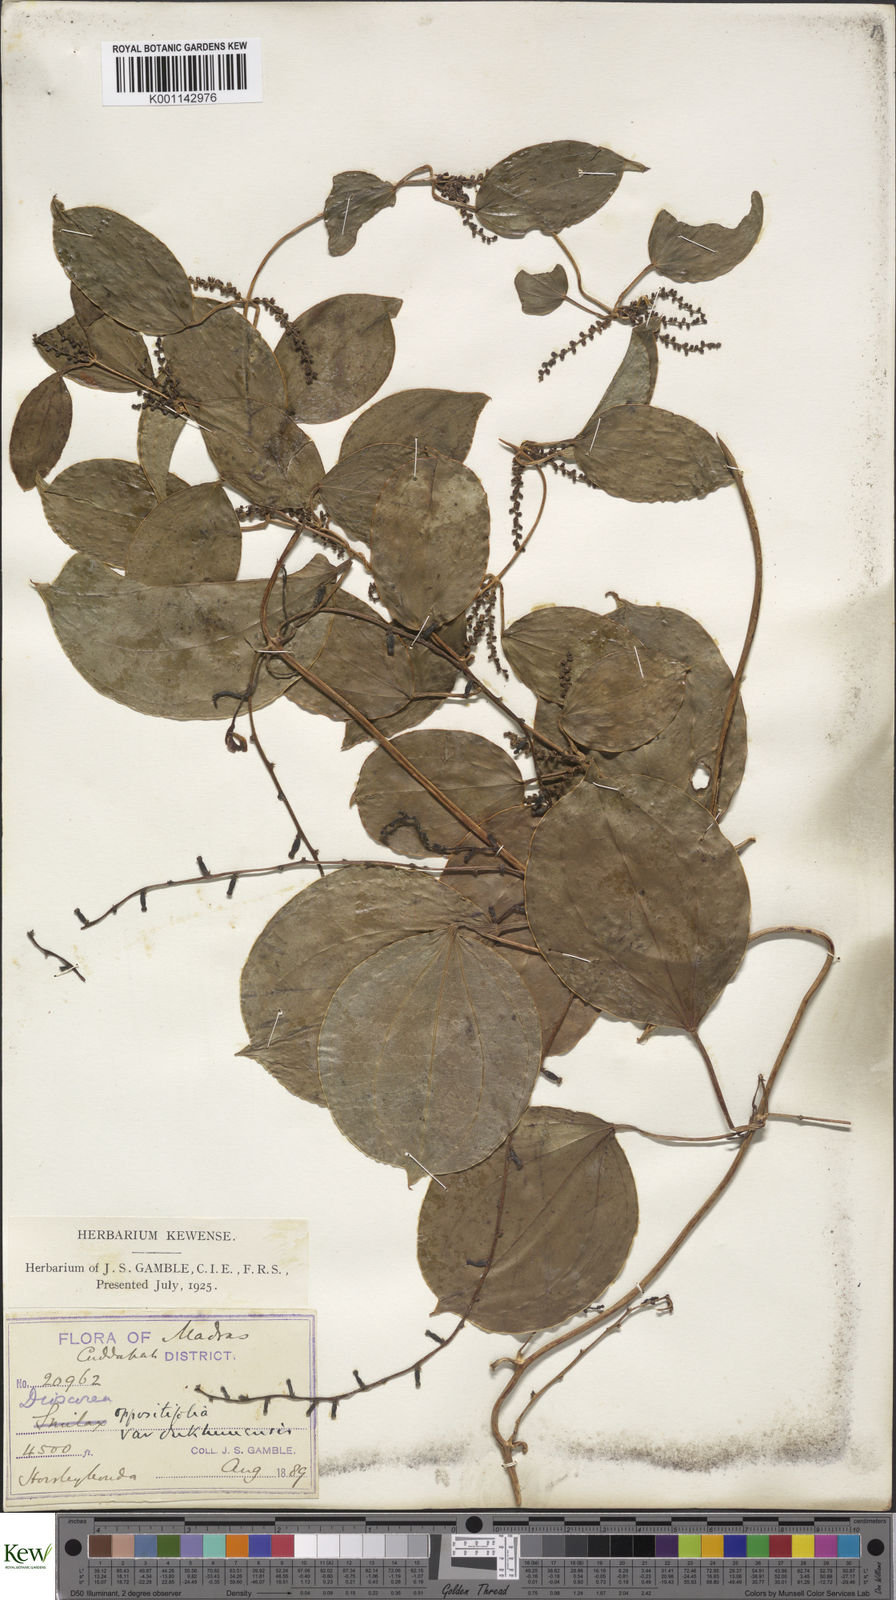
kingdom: Plantae
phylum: Tracheophyta
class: Liliopsida
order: Dioscoreales
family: Dioscoreaceae
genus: Dioscorea
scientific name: Dioscorea oppositifolia
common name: Chinese yam
